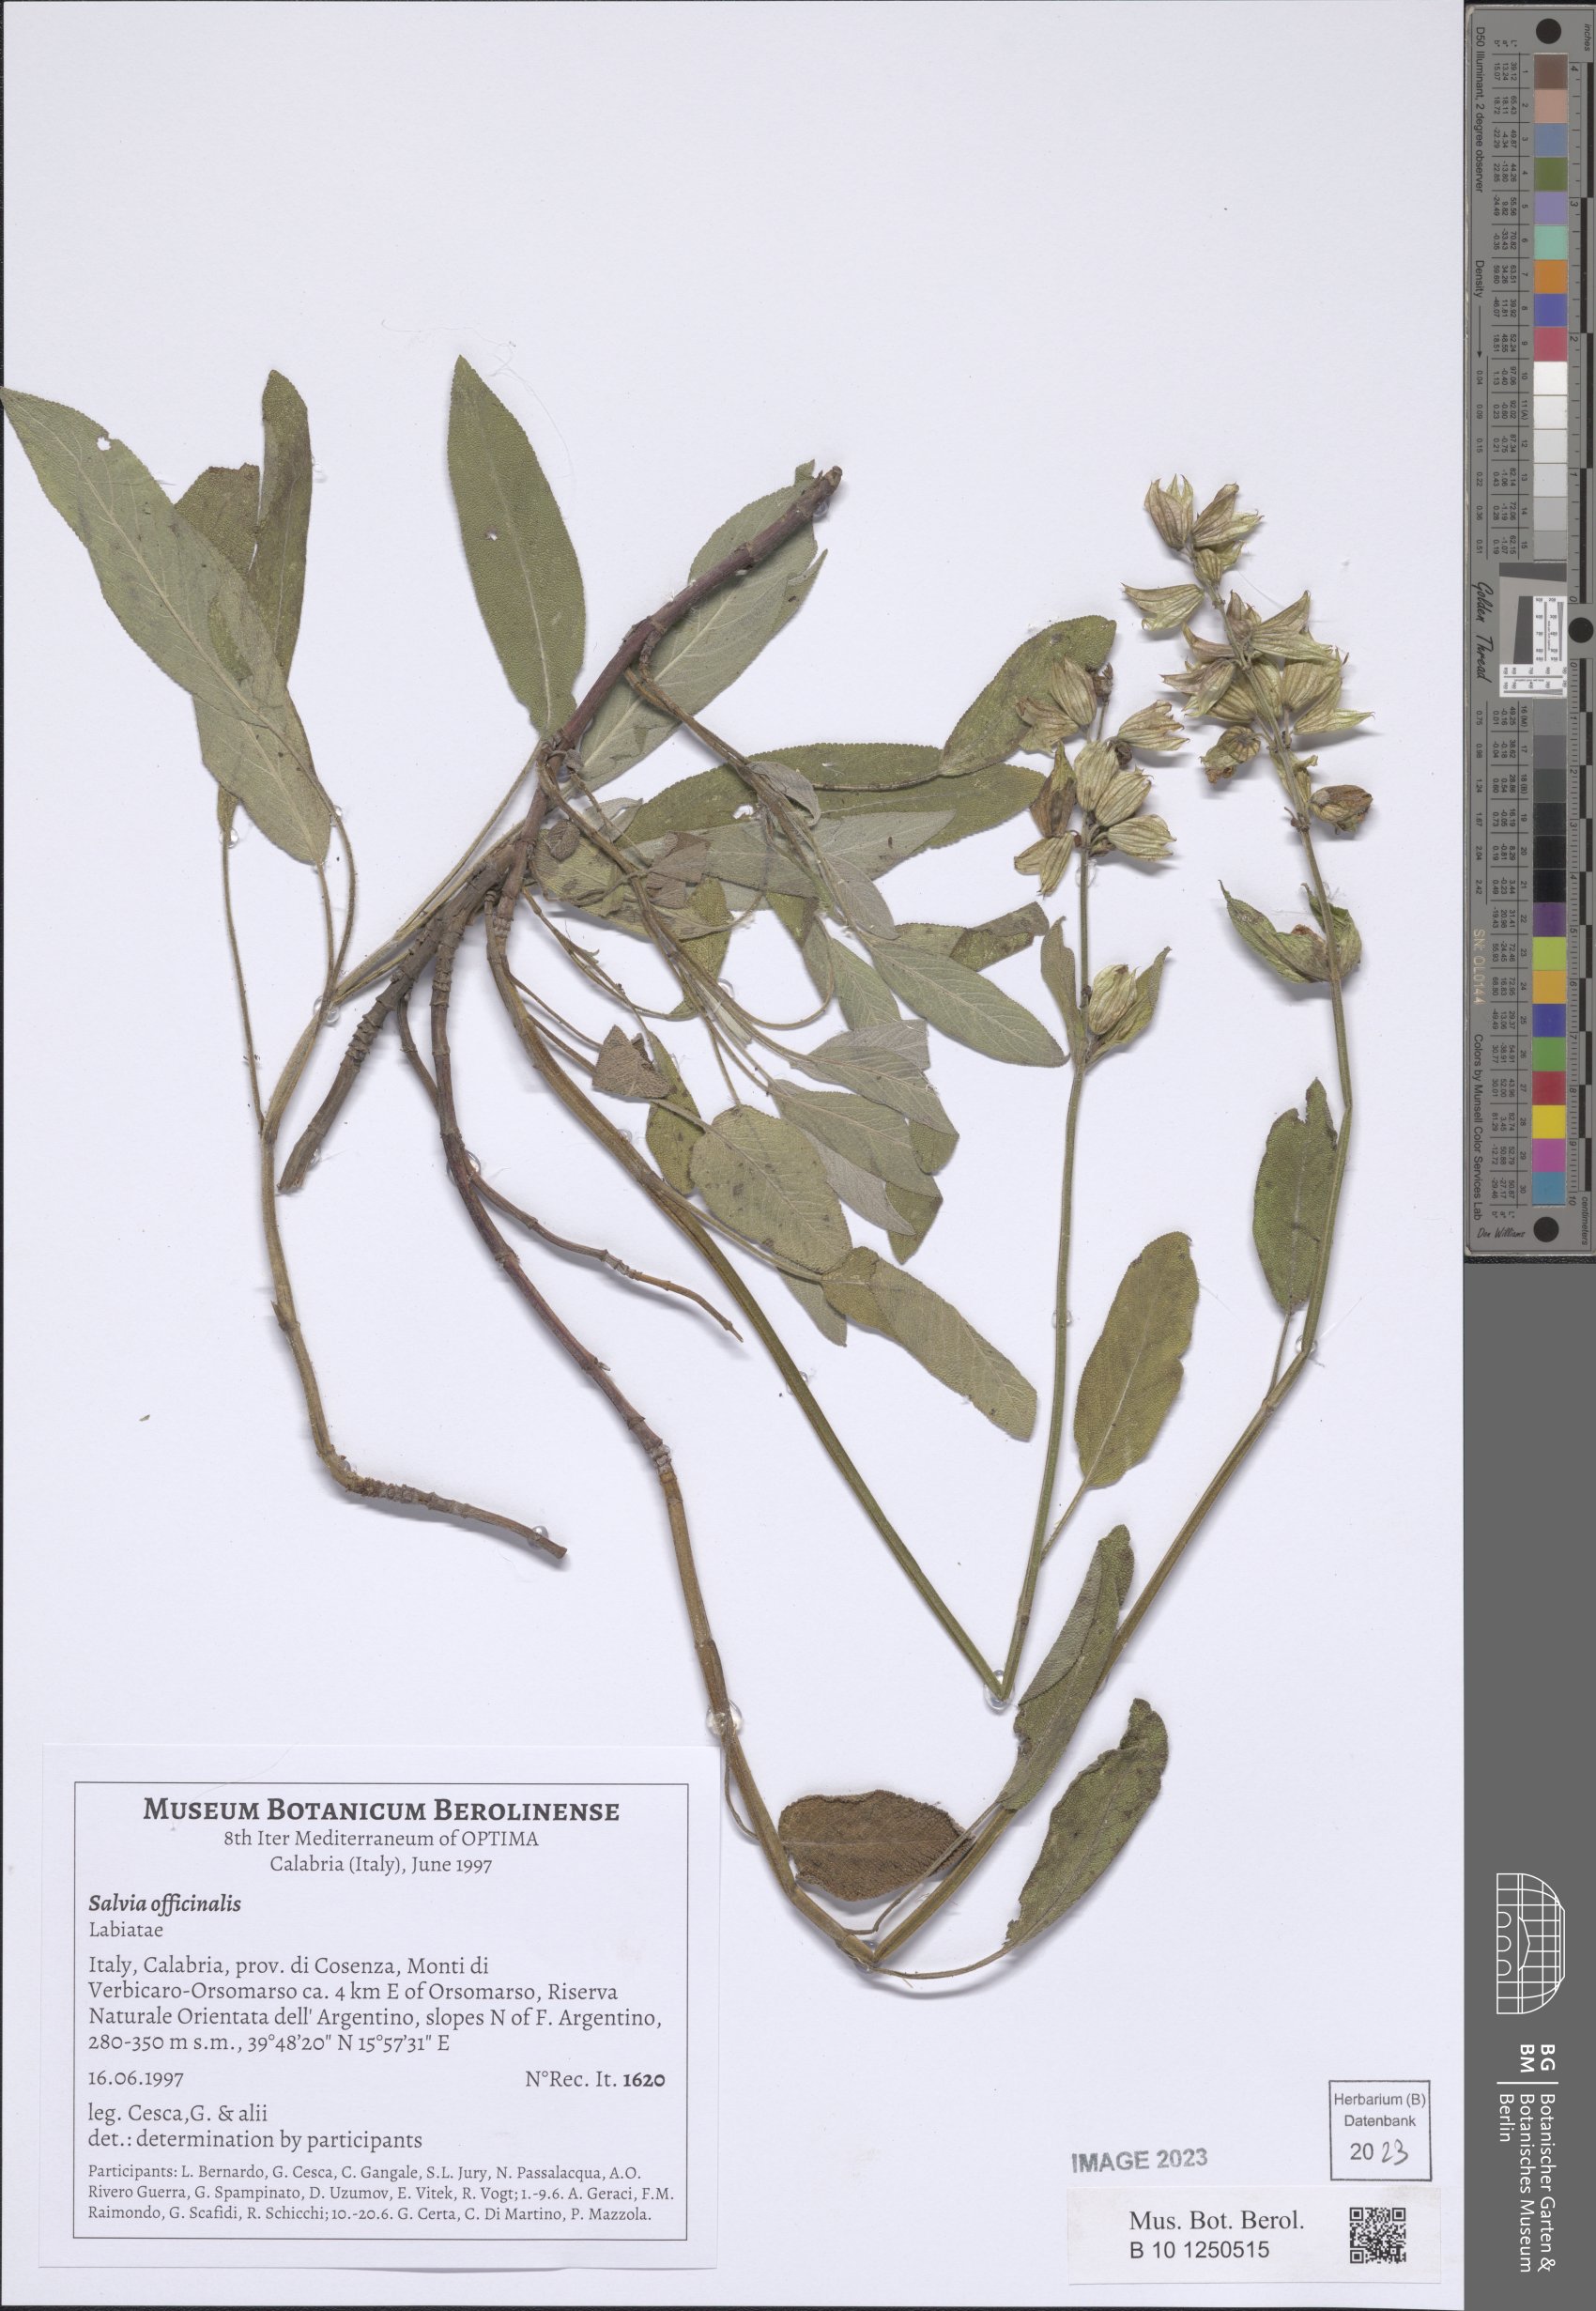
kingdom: Plantae
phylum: Tracheophyta
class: Magnoliopsida
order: Lamiales
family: Lamiaceae
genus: Salvia
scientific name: Salvia officinalis
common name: Sage
